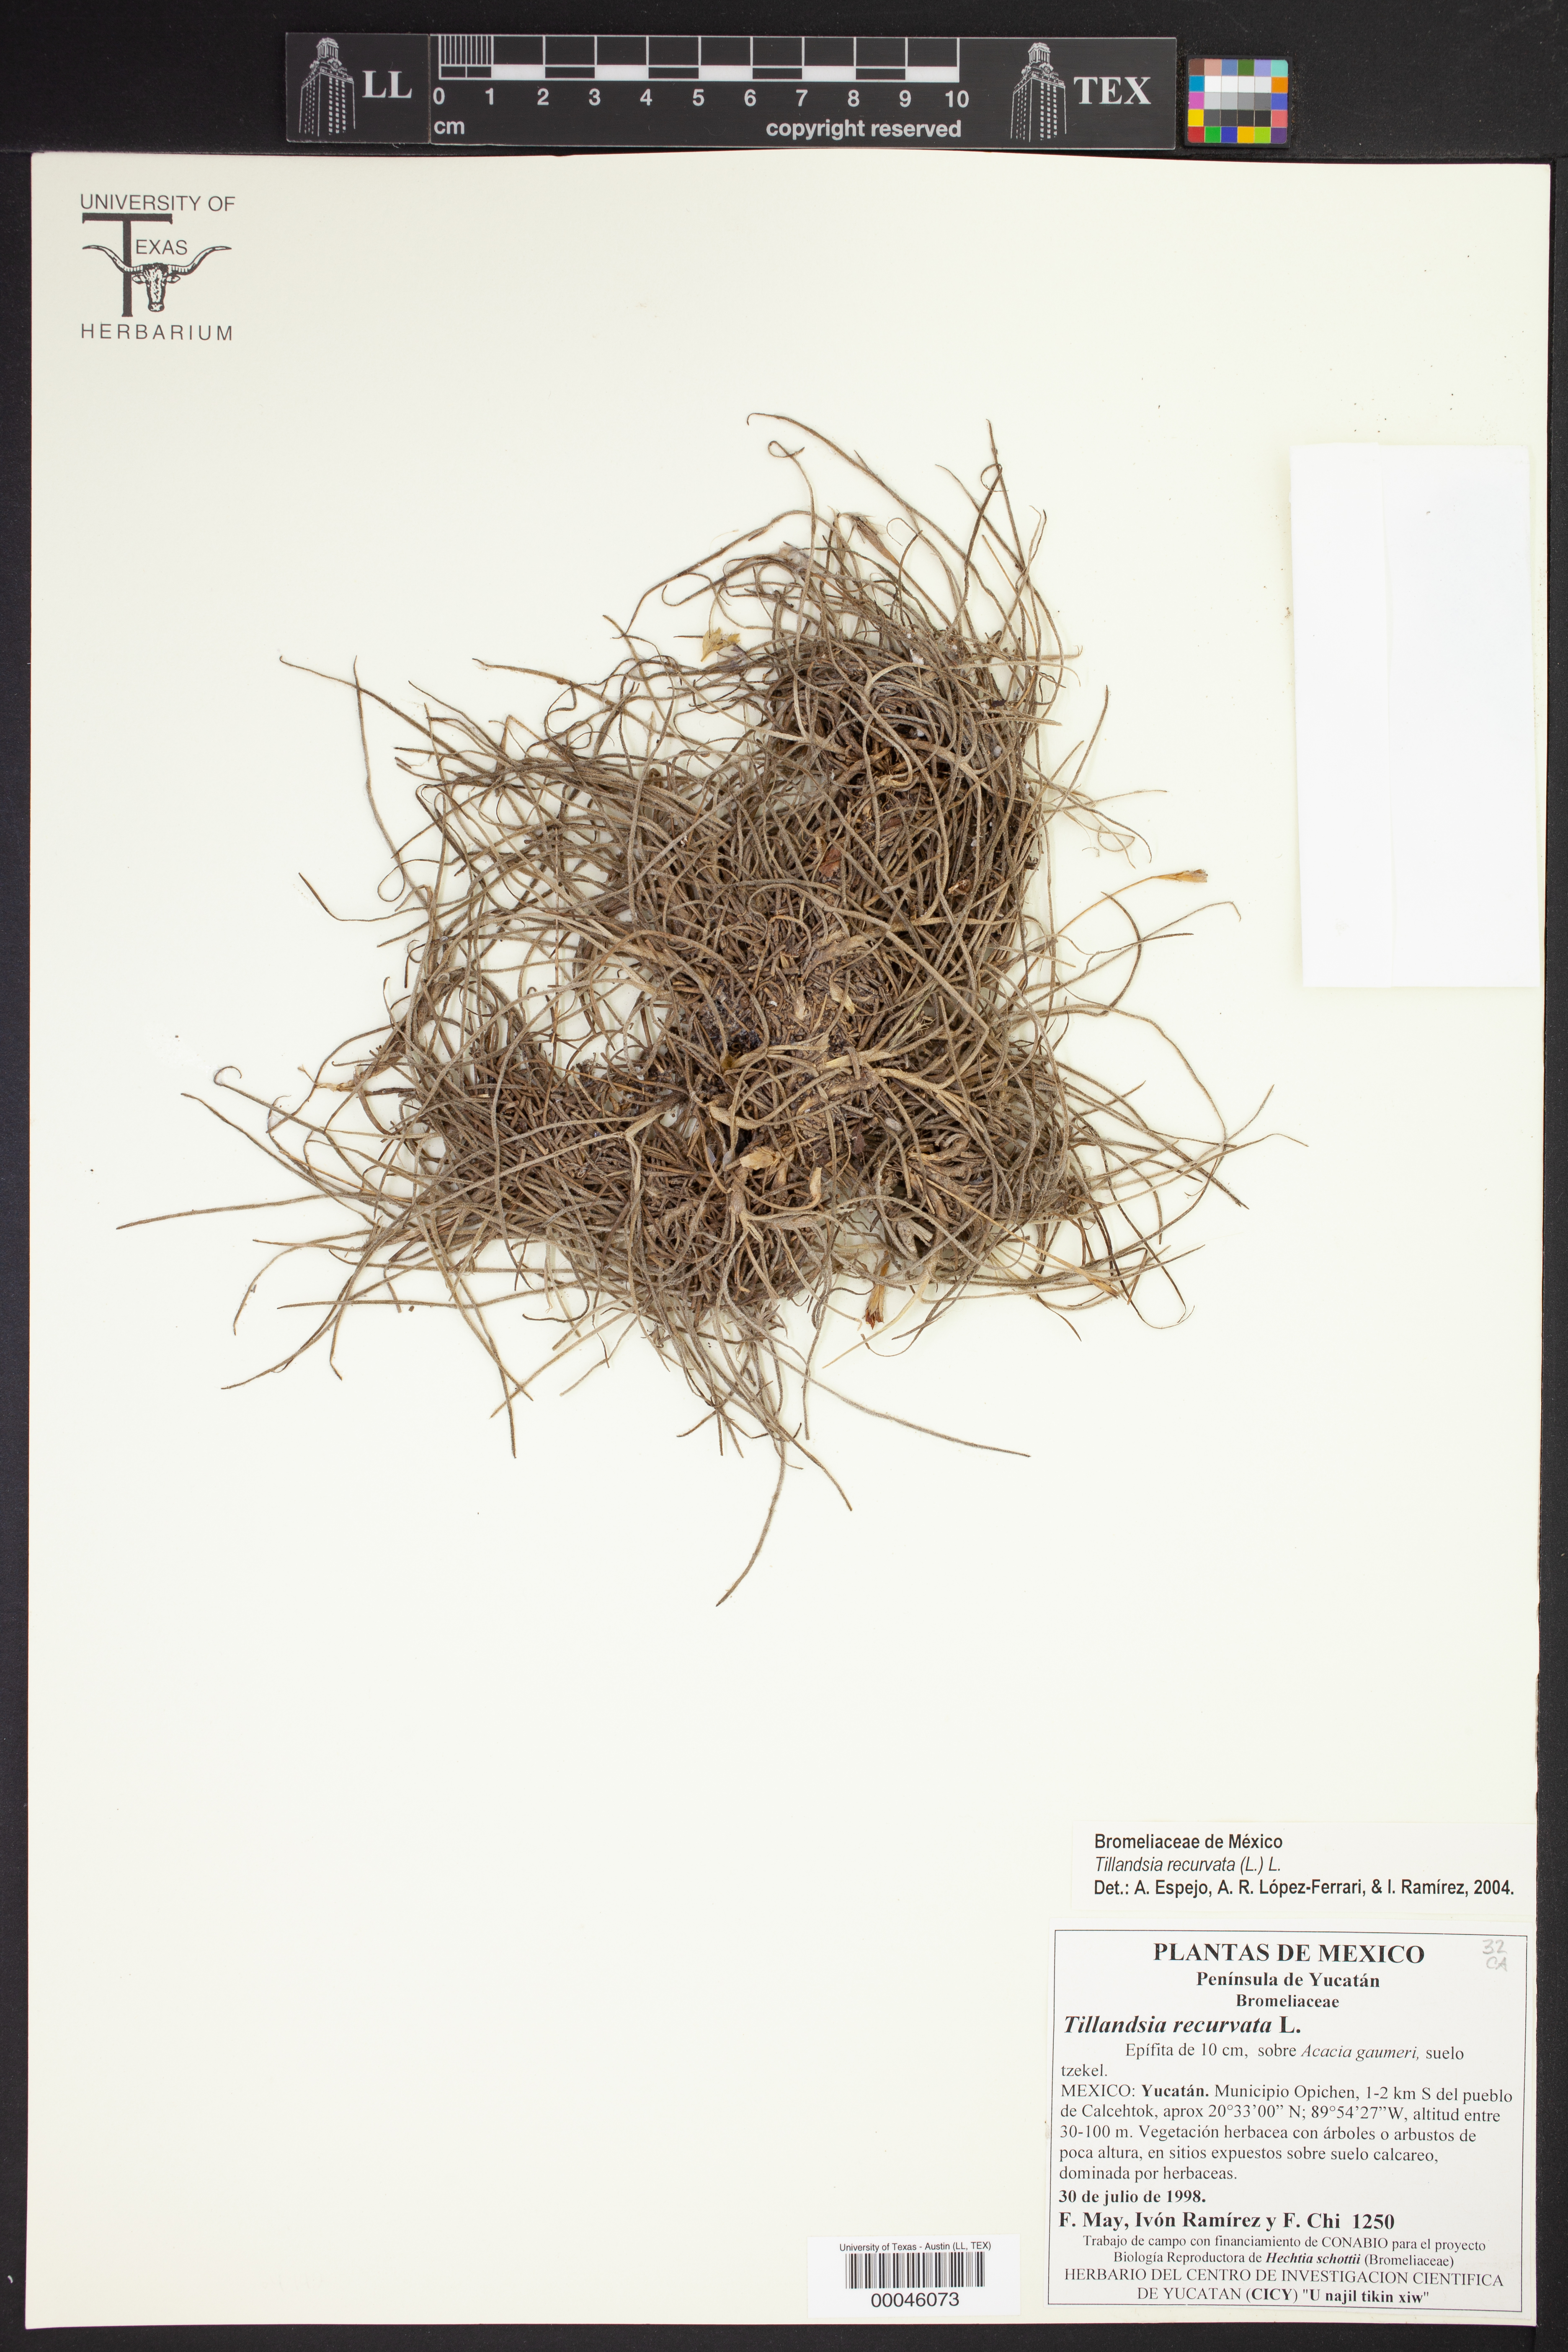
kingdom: Plantae
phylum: Tracheophyta
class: Liliopsida
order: Poales
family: Bromeliaceae
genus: Tillandsia
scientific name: Tillandsia recurvata
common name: Small ballmoss
